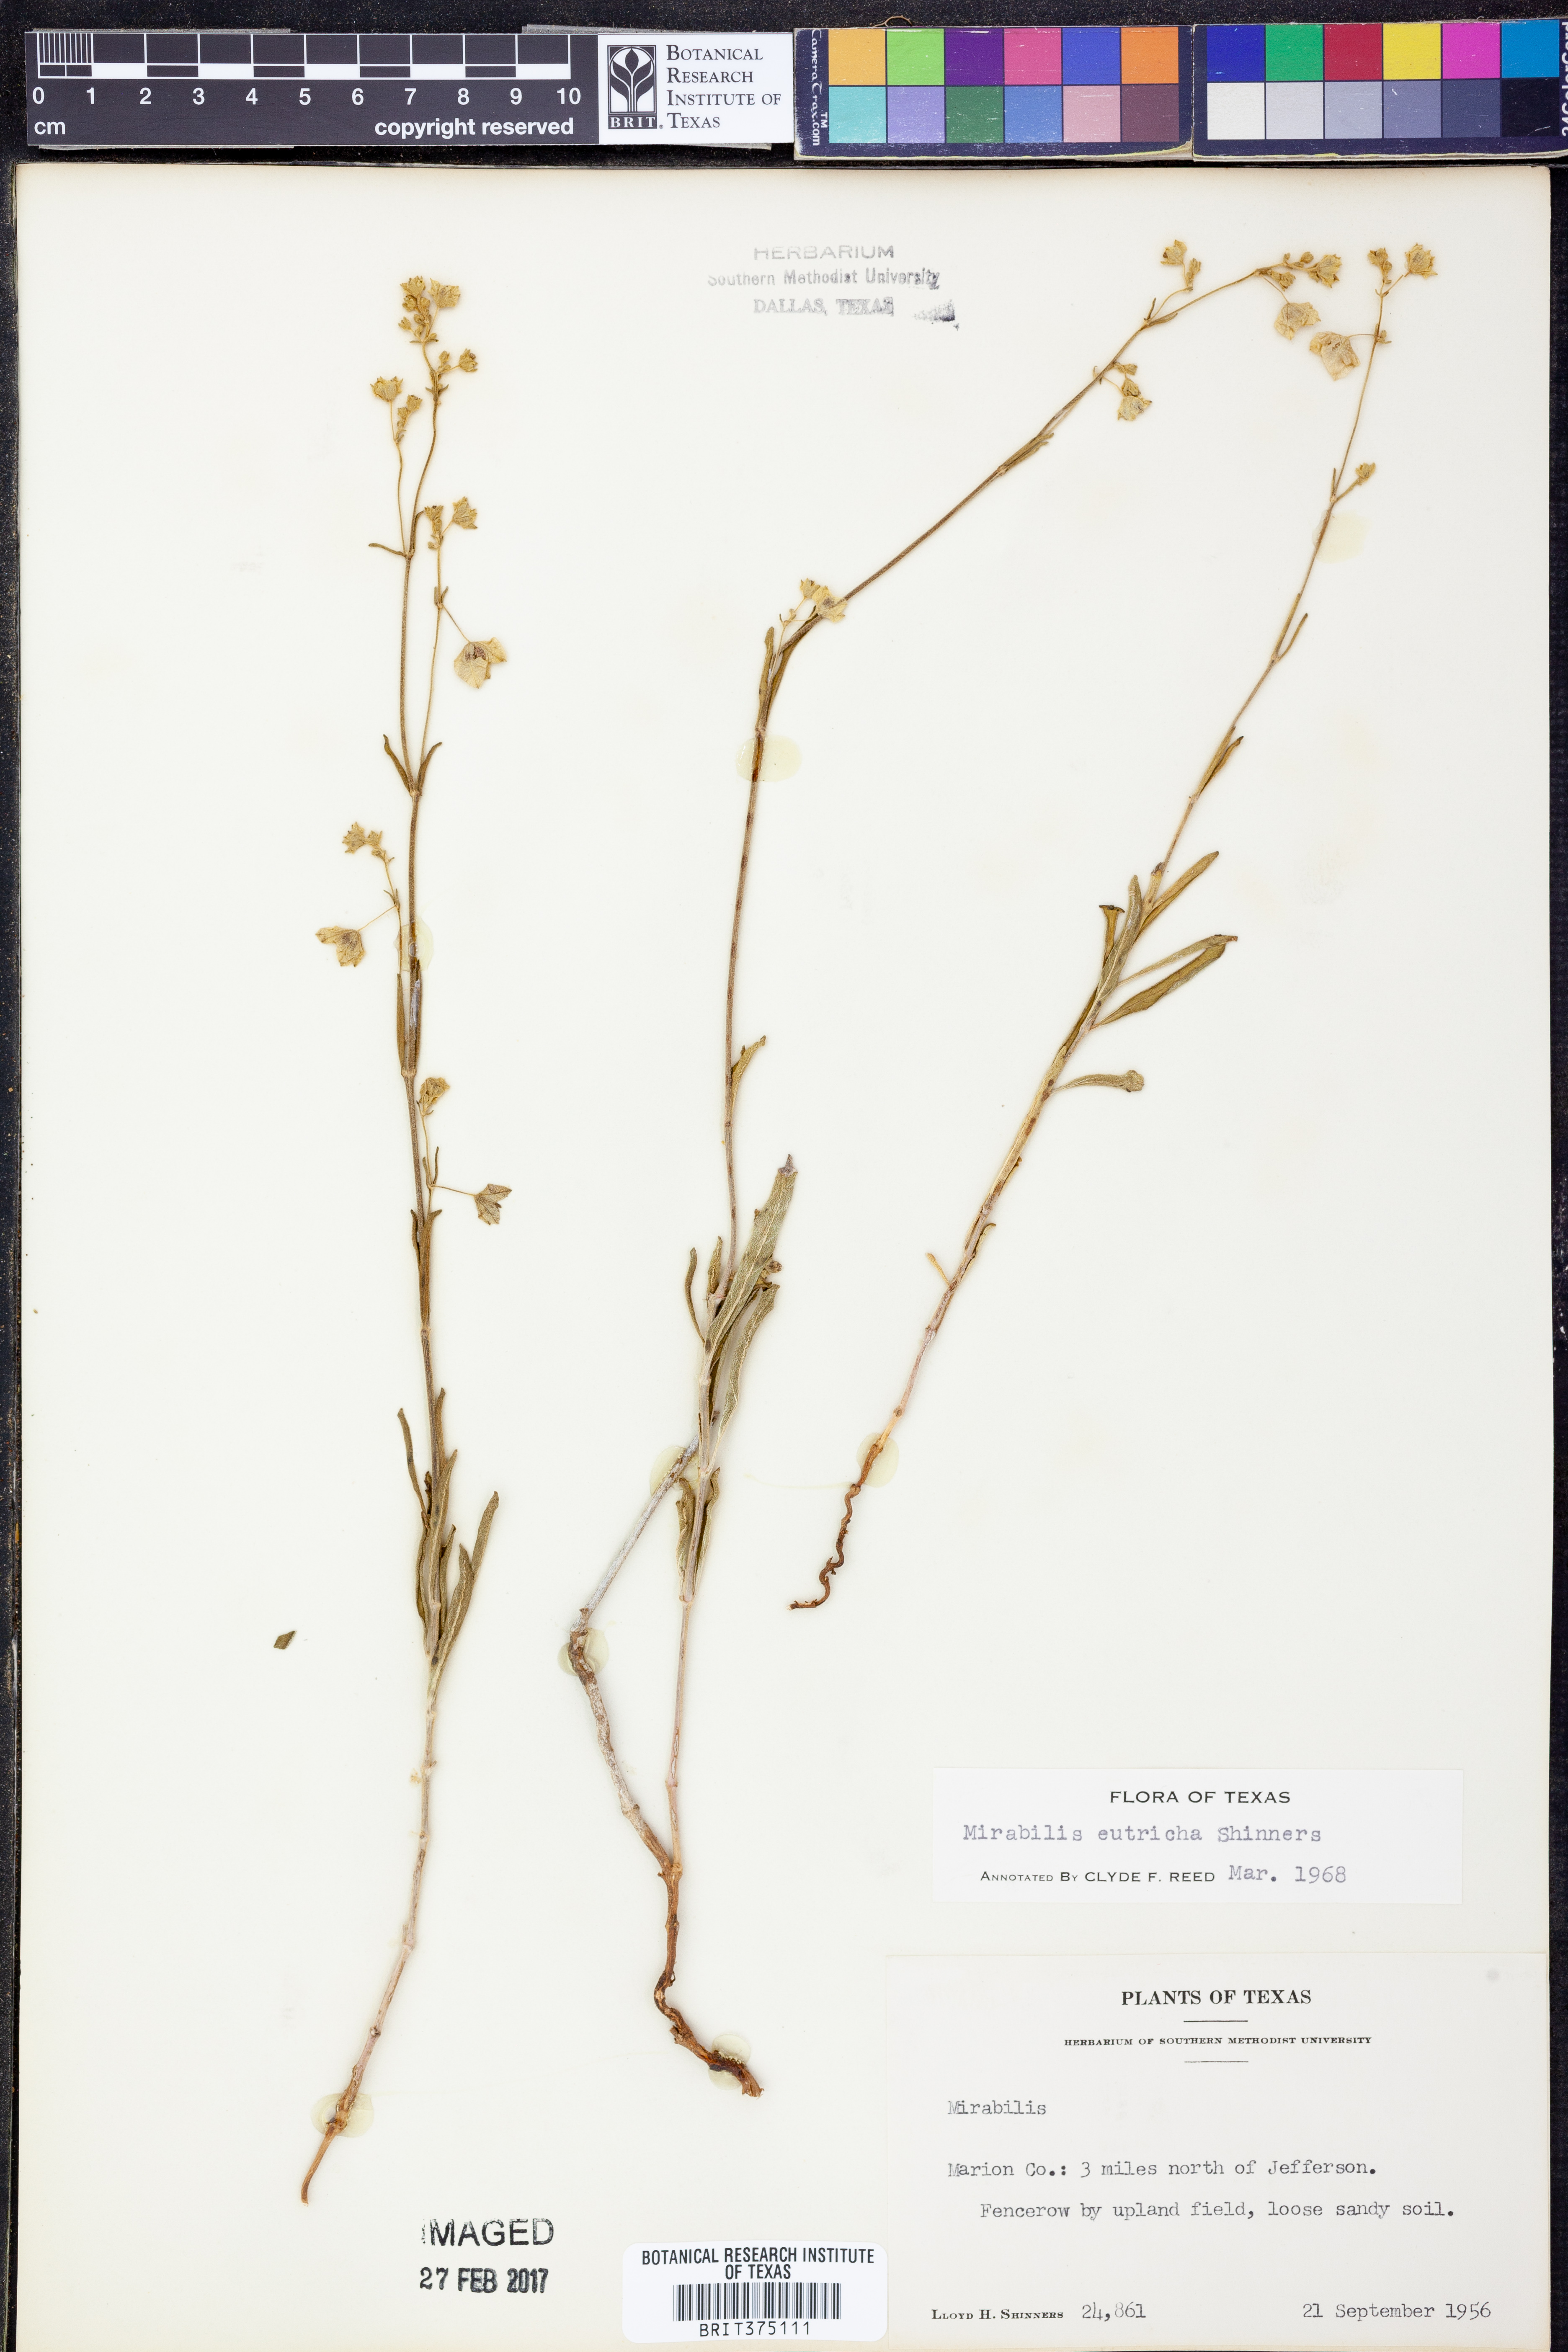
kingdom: Plantae
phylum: Tracheophyta
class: Magnoliopsida
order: Caryophyllales
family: Nyctaginaceae
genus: Mirabilis
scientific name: Mirabilis albida
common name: Hairy four-o'clock
